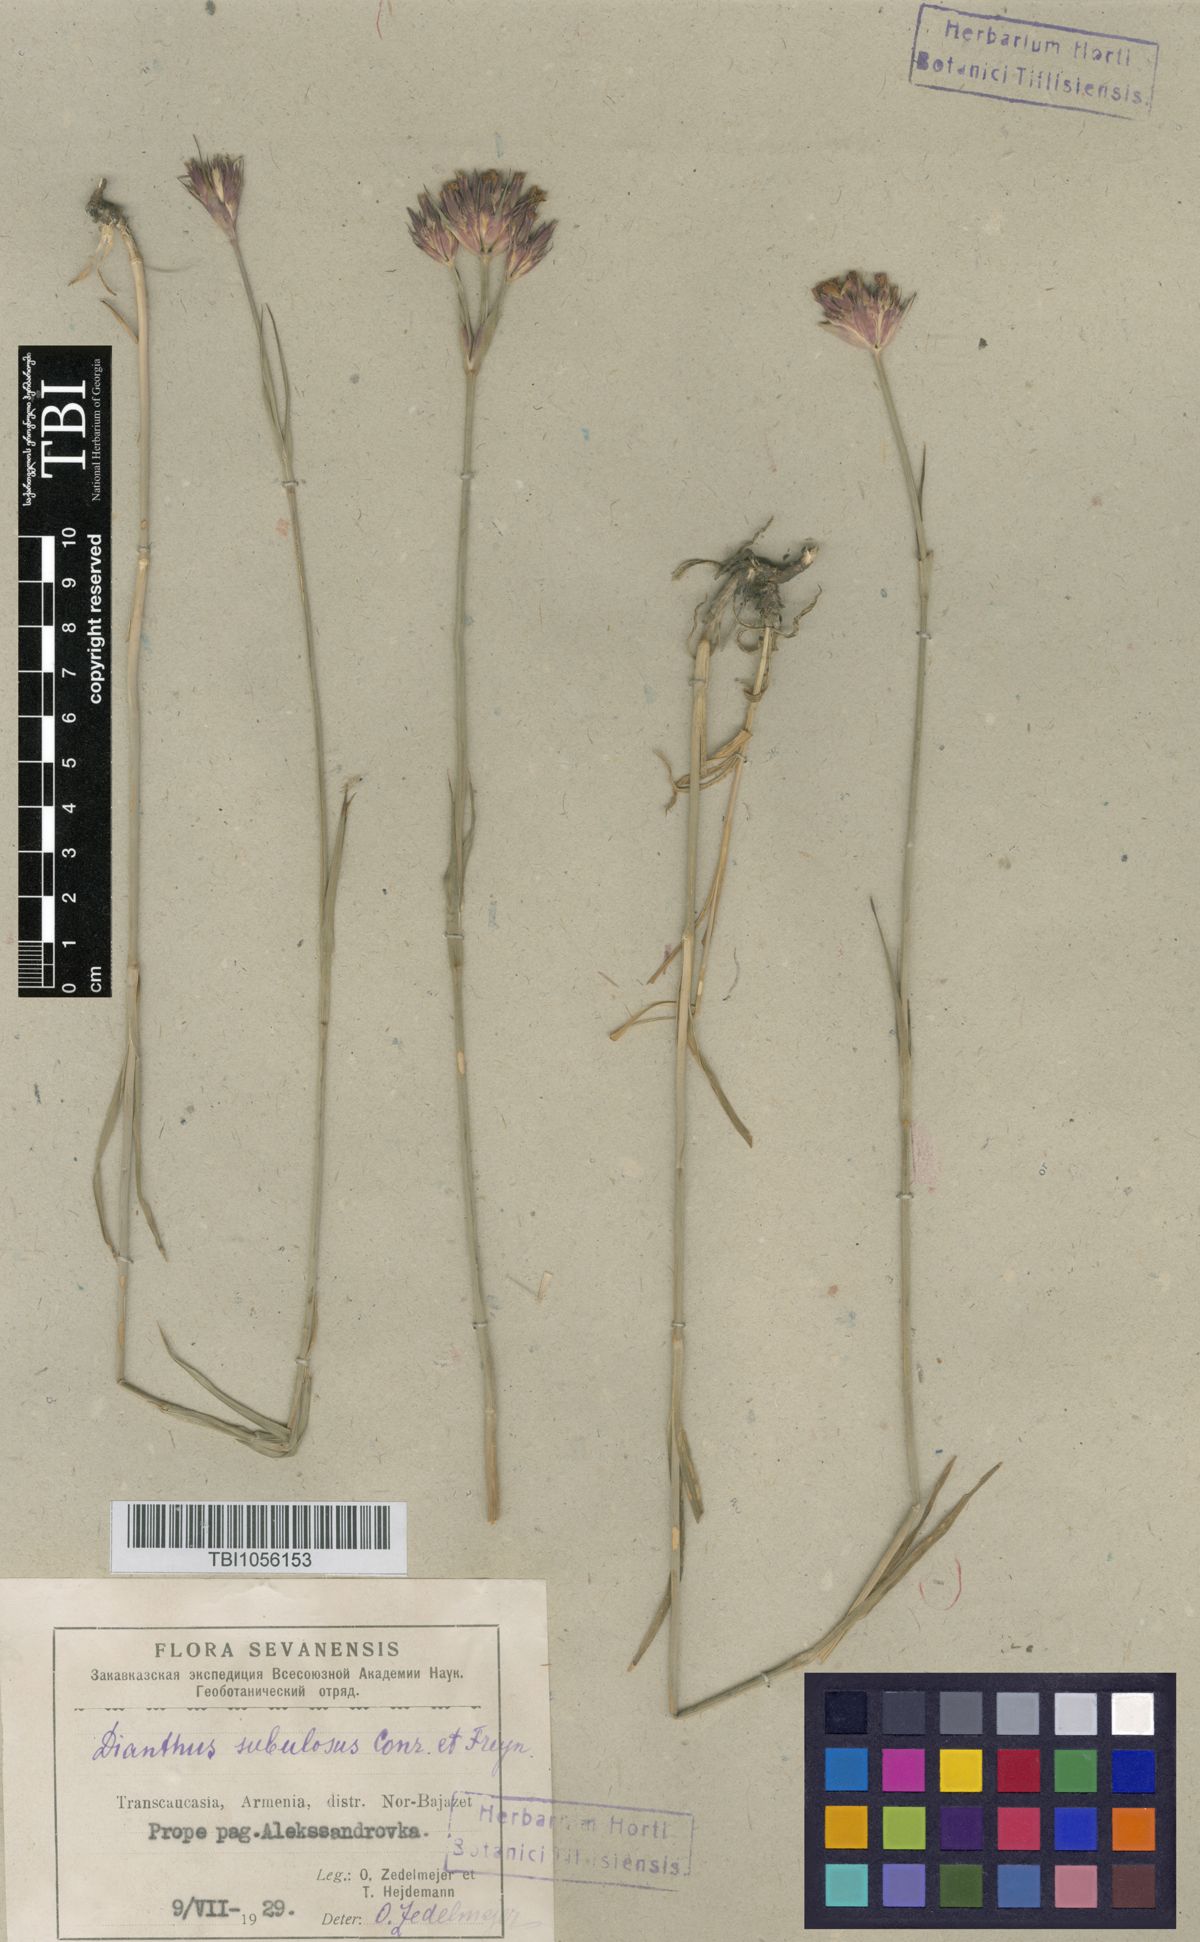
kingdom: Plantae
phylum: Tracheophyta
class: Magnoliopsida
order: Caryophyllales
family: Caryophyllaceae
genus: Dianthus
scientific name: Dianthus subulosus
